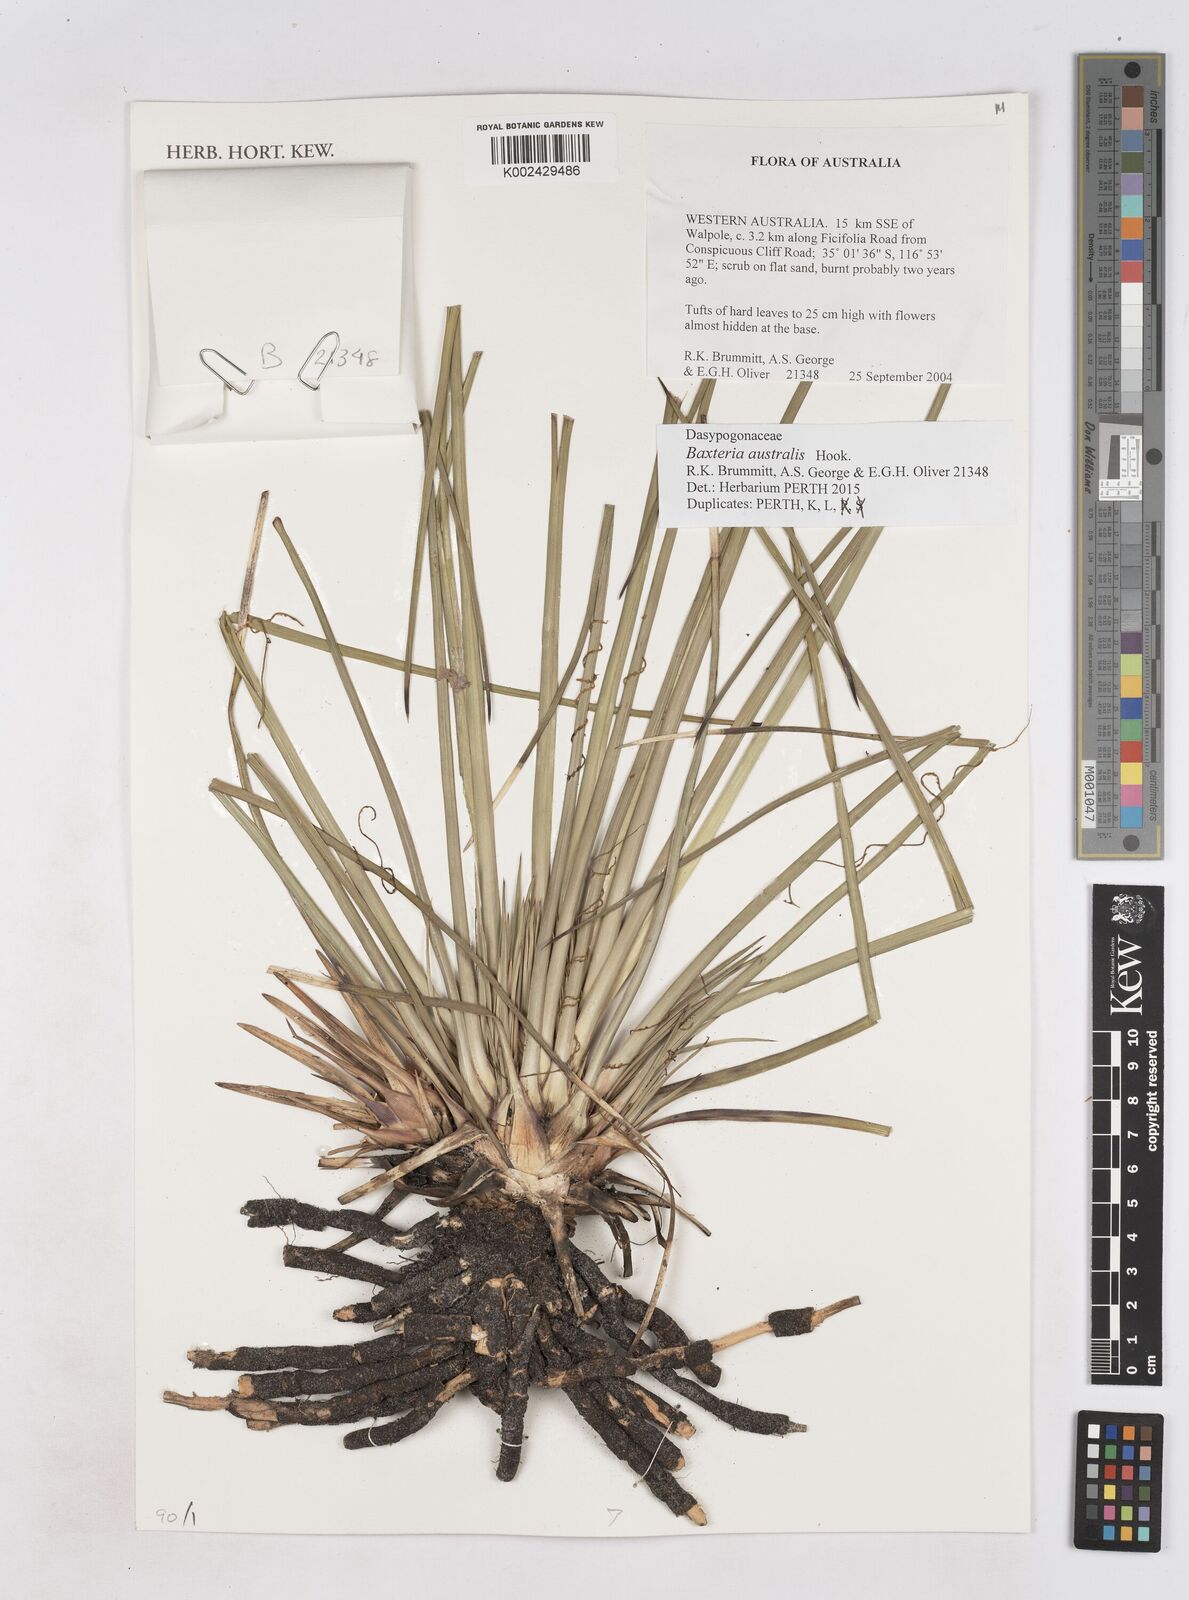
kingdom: Plantae
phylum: Tracheophyta
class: Liliopsida
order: Arecales
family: Dasypogonaceae
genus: Baxteria
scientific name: Baxteria
